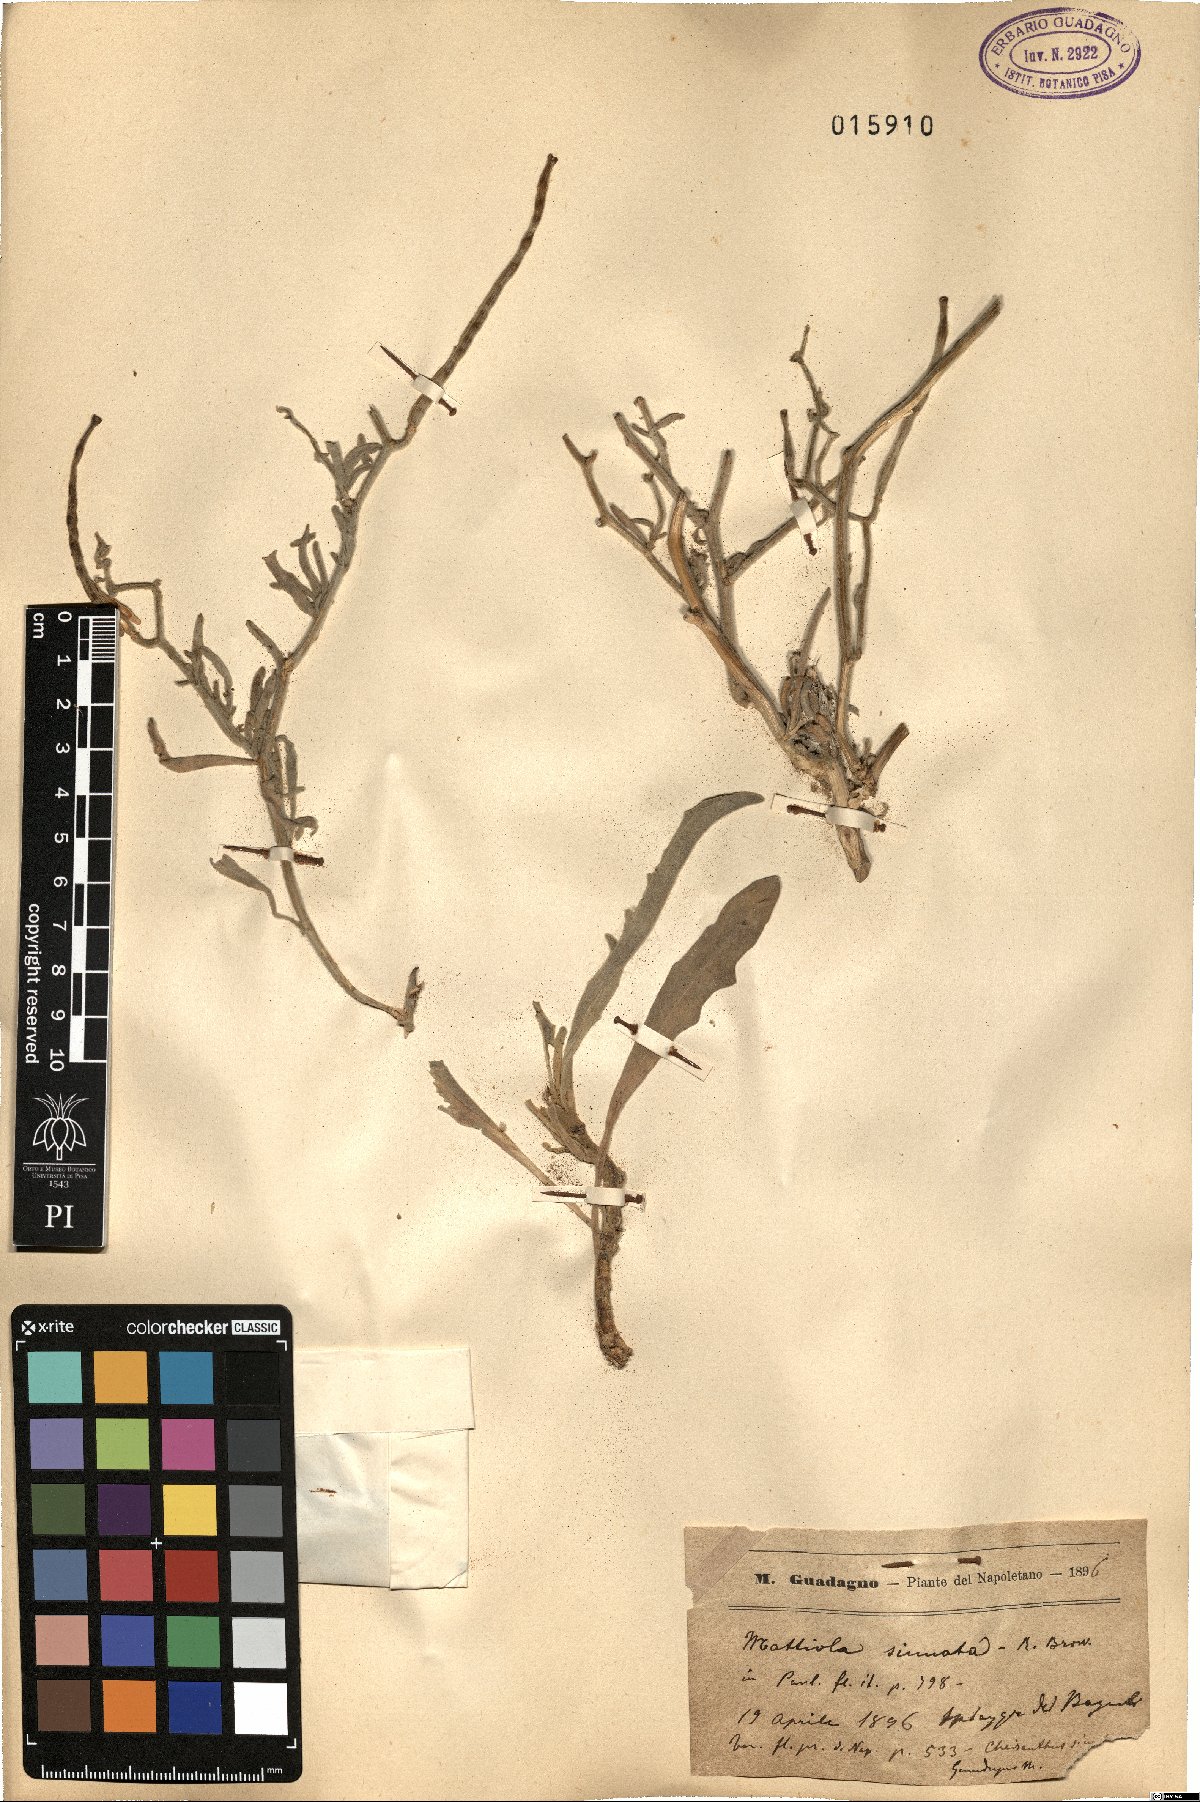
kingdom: Plantae
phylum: Tracheophyta
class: Magnoliopsida
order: Brassicales
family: Brassicaceae
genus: Matthiola
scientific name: Matthiola sinuata
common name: Sea stock
